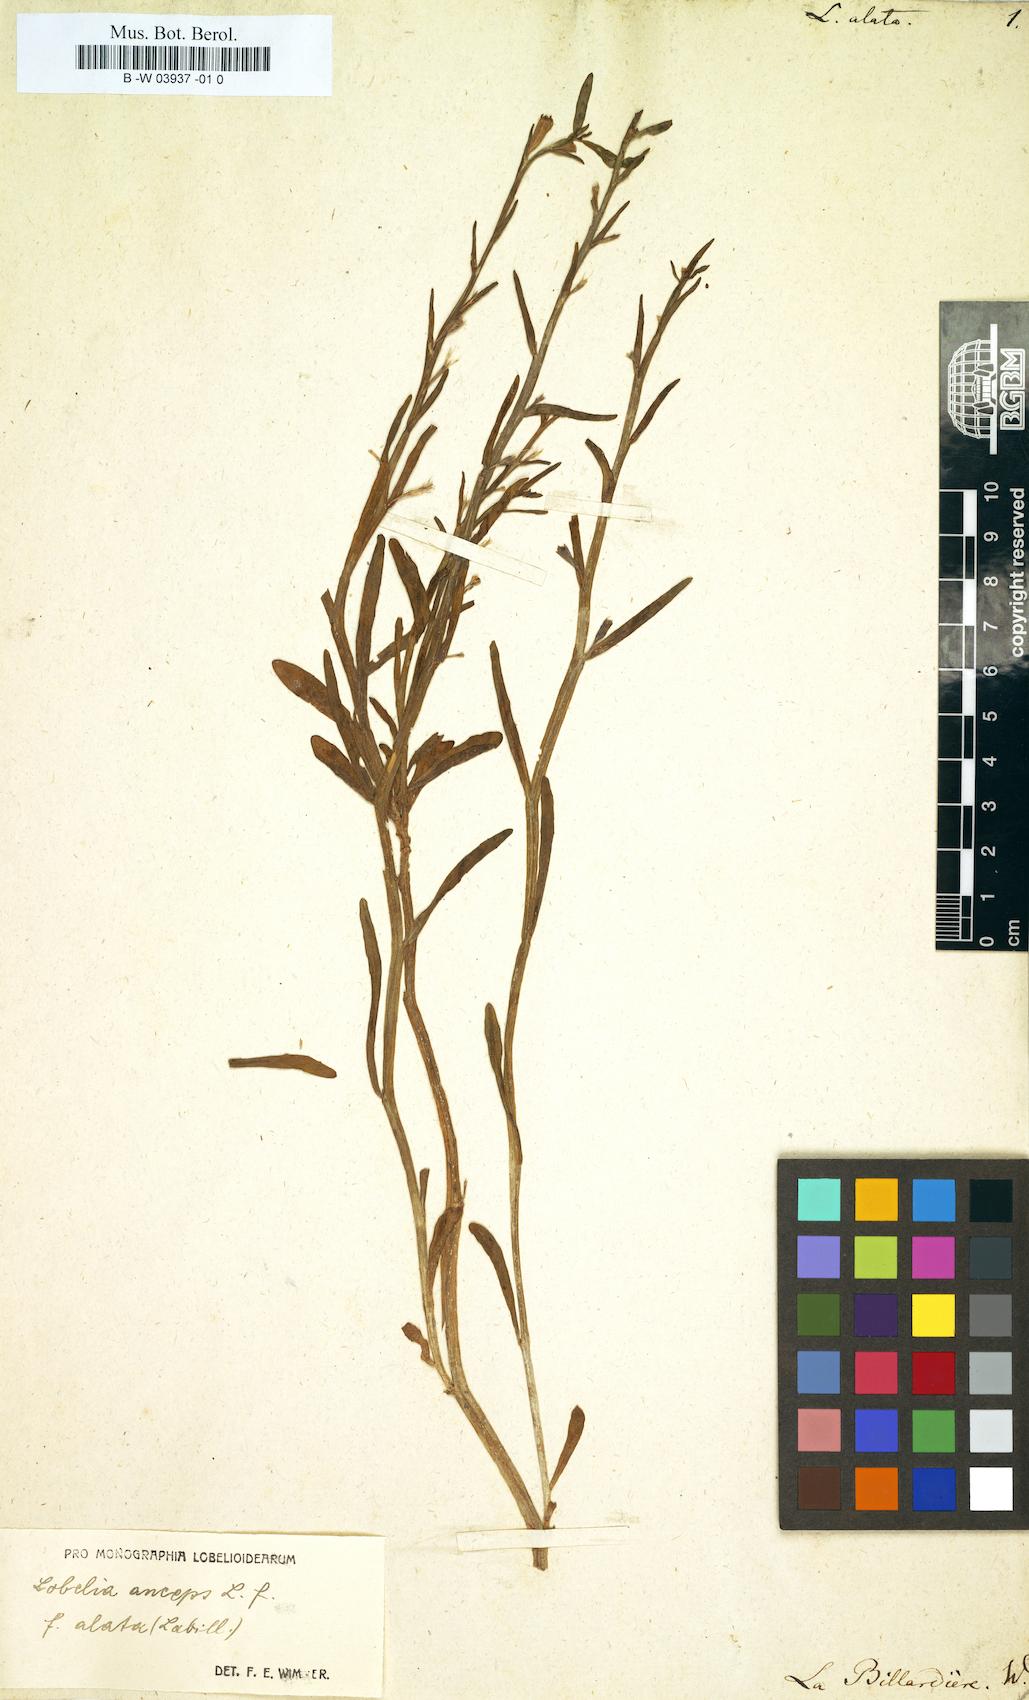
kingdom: Plantae
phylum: Tracheophyta
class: Magnoliopsida
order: Asterales
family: Campanulaceae
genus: Lobelia
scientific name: Lobelia anceps
